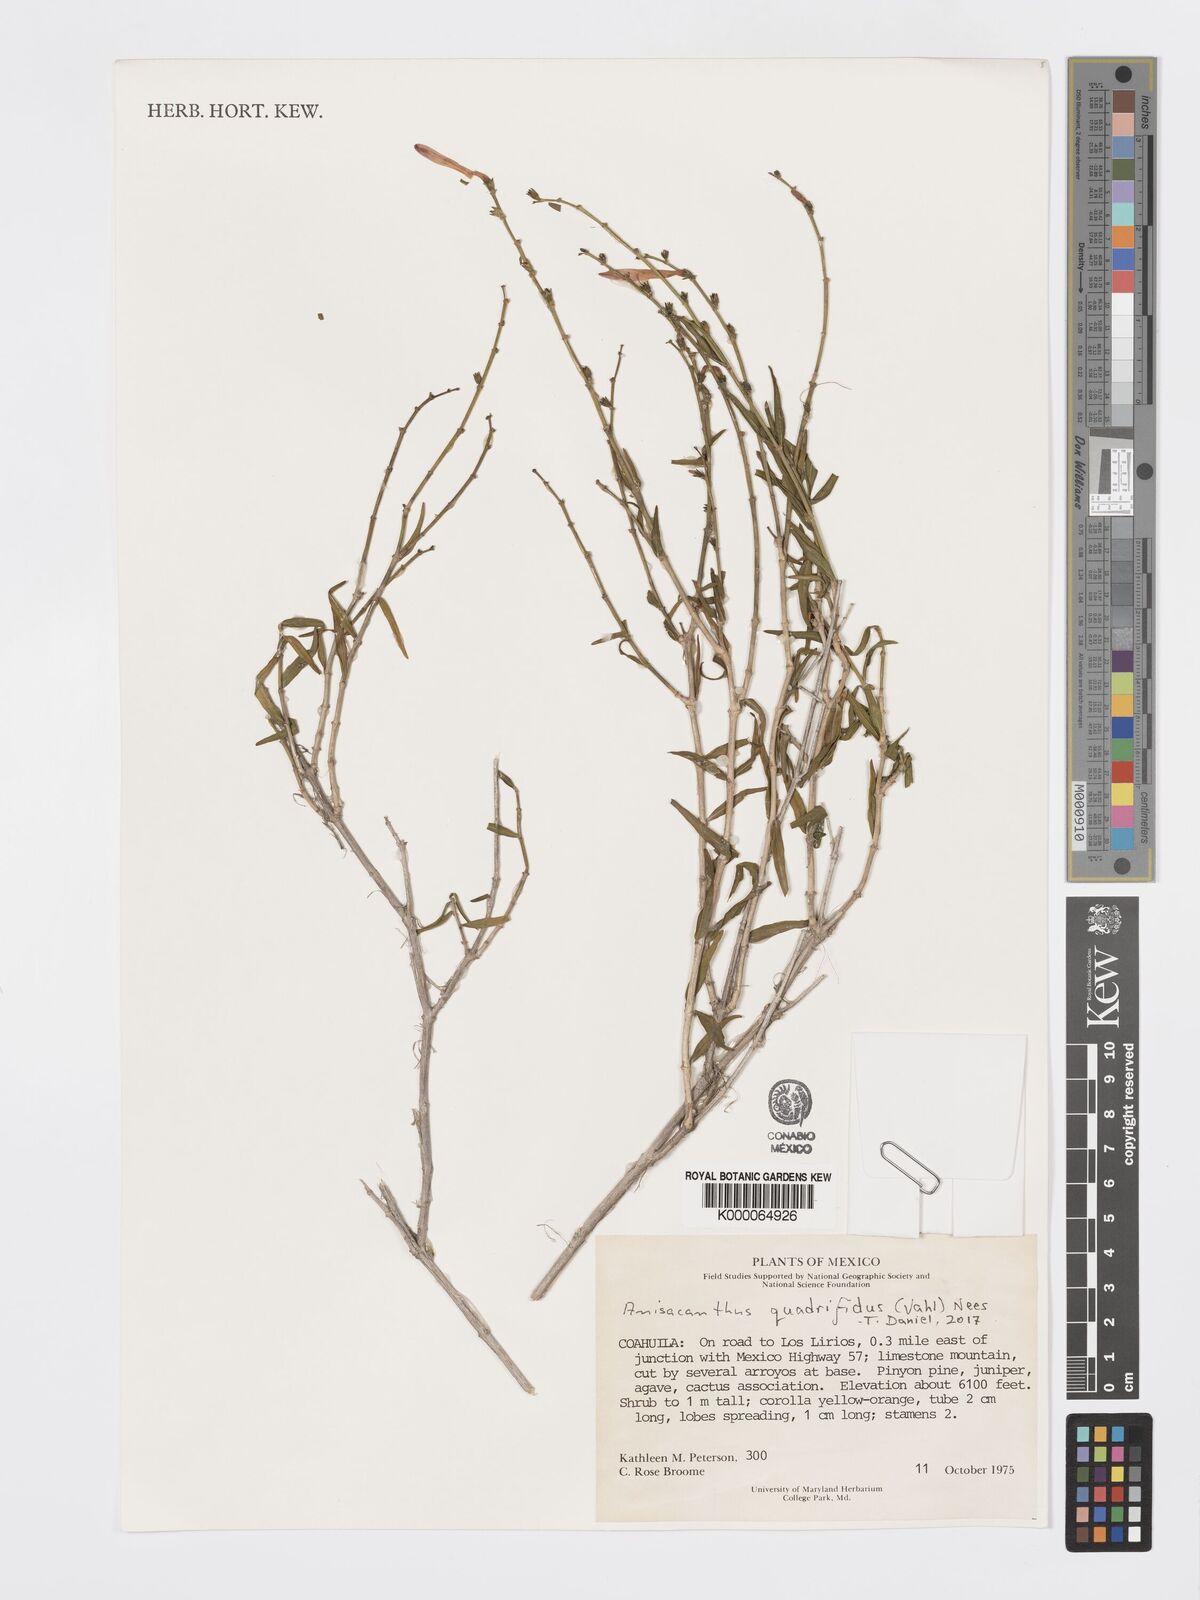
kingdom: Plantae
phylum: Tracheophyta
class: Magnoliopsida
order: Lamiales
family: Acanthaceae
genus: Anisacanthus
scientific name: Anisacanthus
